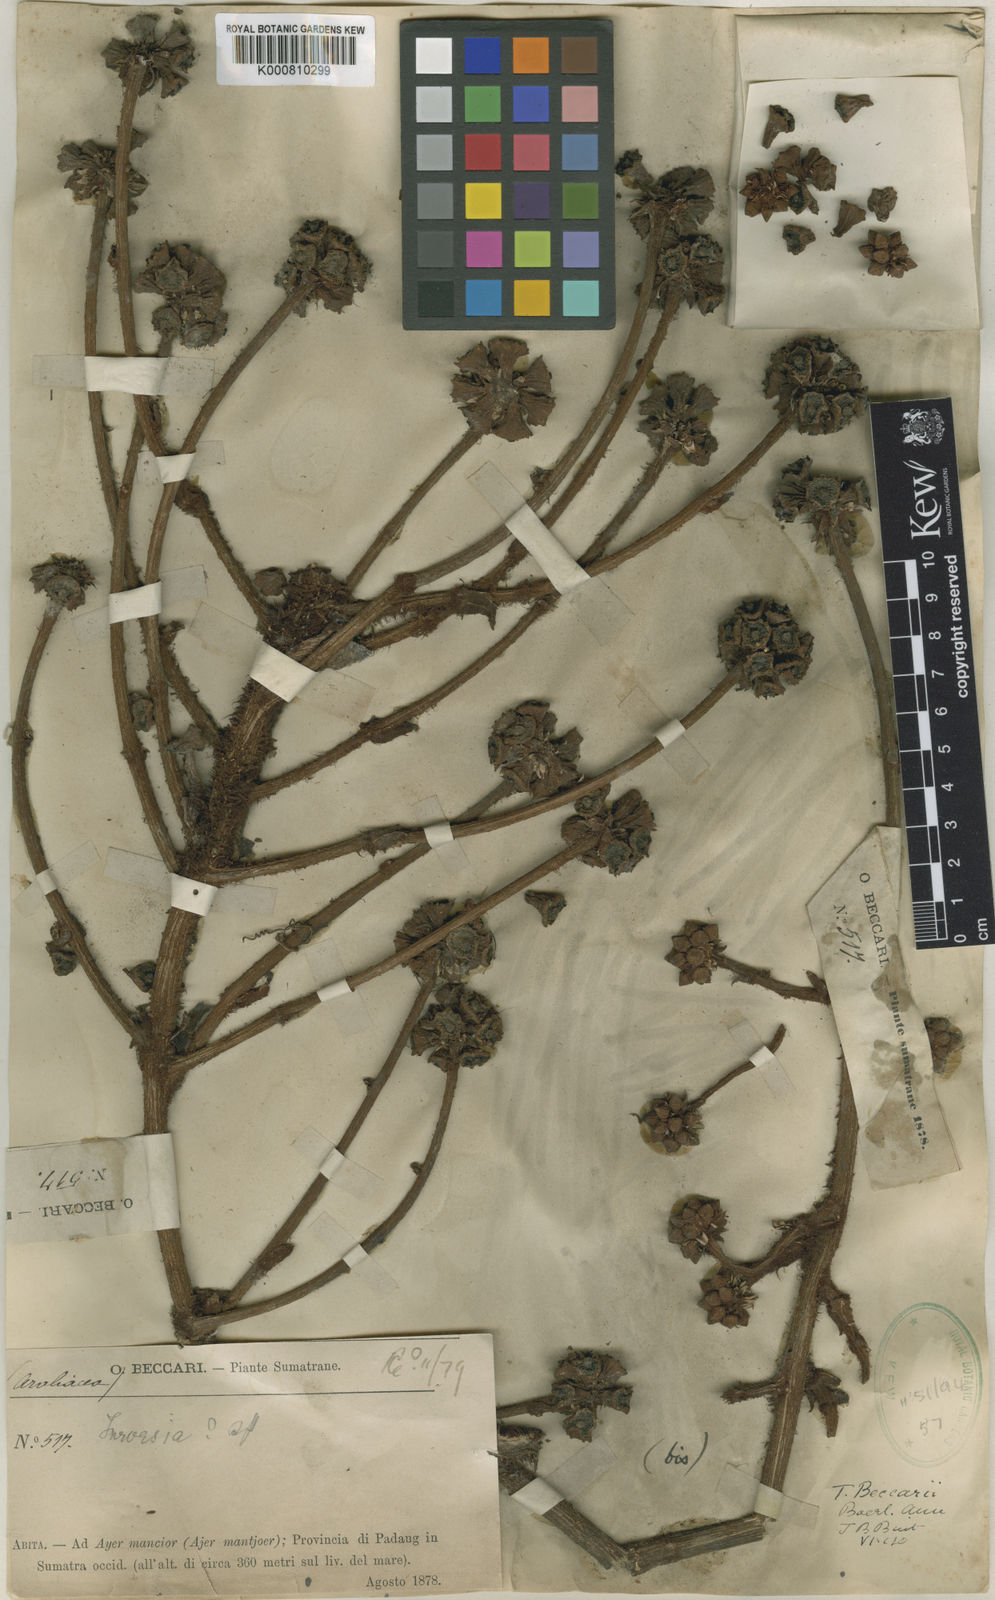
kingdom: Plantae
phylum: Tracheophyta
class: Magnoliopsida
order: Apiales
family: Araliaceae
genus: Trevesia
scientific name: Trevesia beccarii
